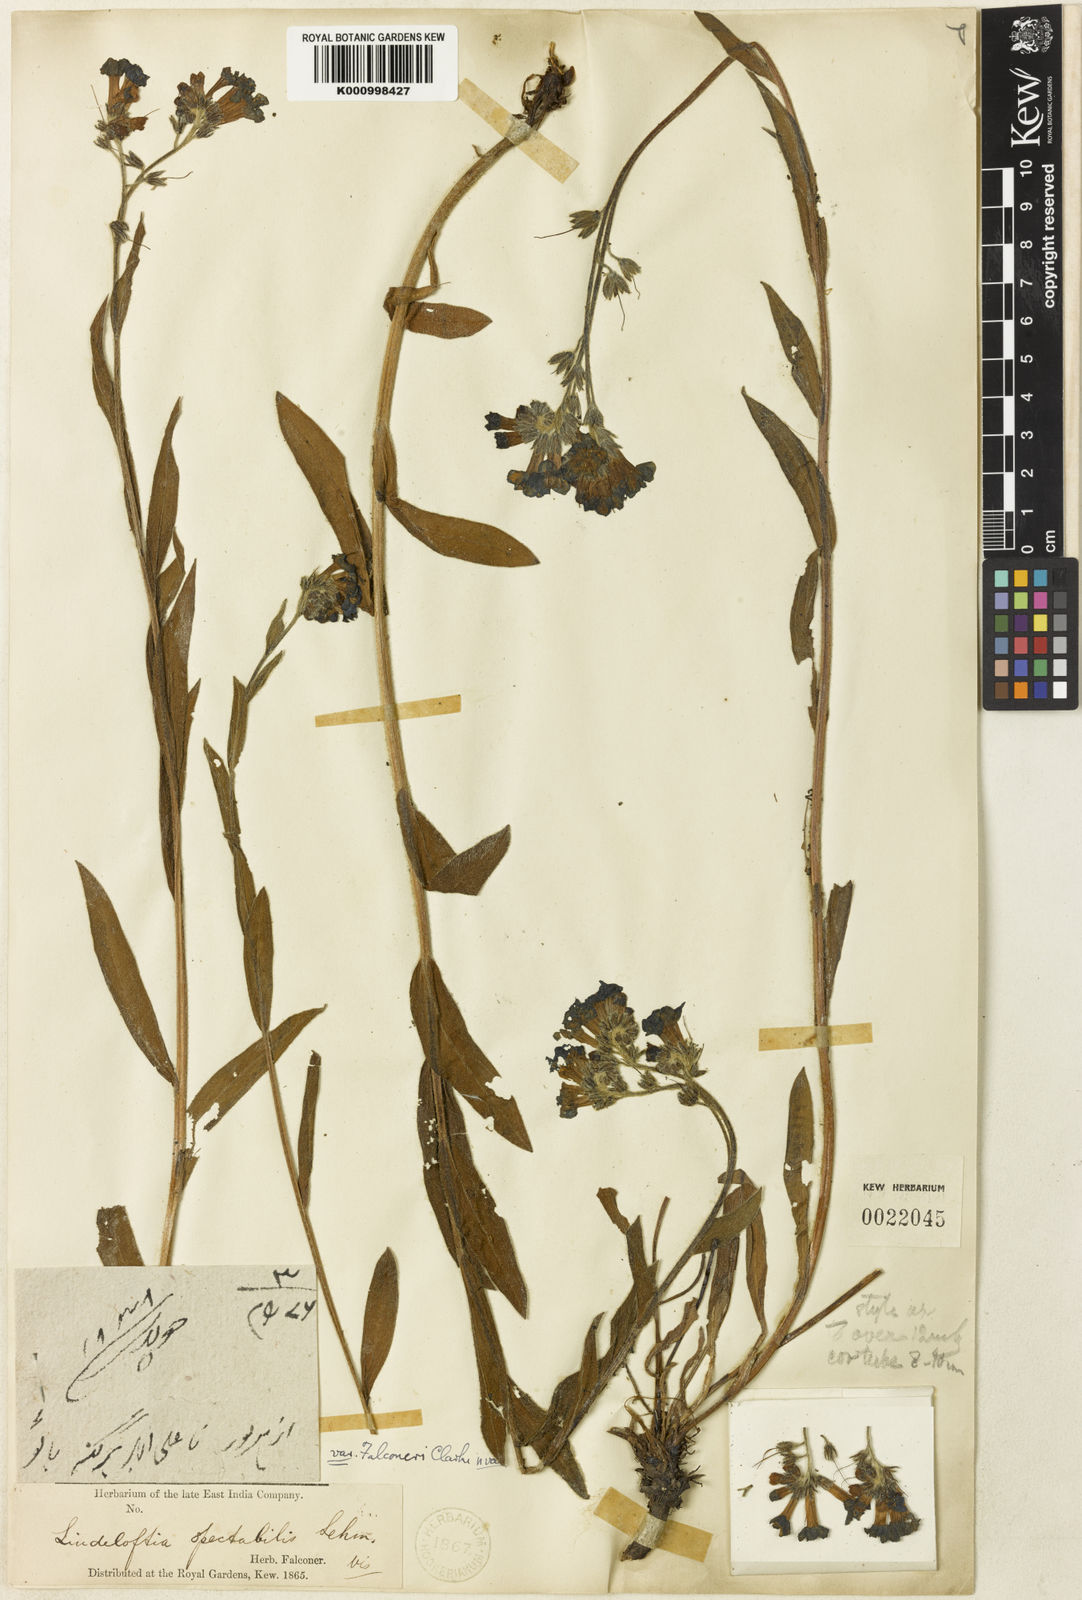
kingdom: Plantae
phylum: Tracheophyta
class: Magnoliopsida
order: Boraginales
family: Boraginaceae
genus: Lindelofia
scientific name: Lindelofia longiflora
